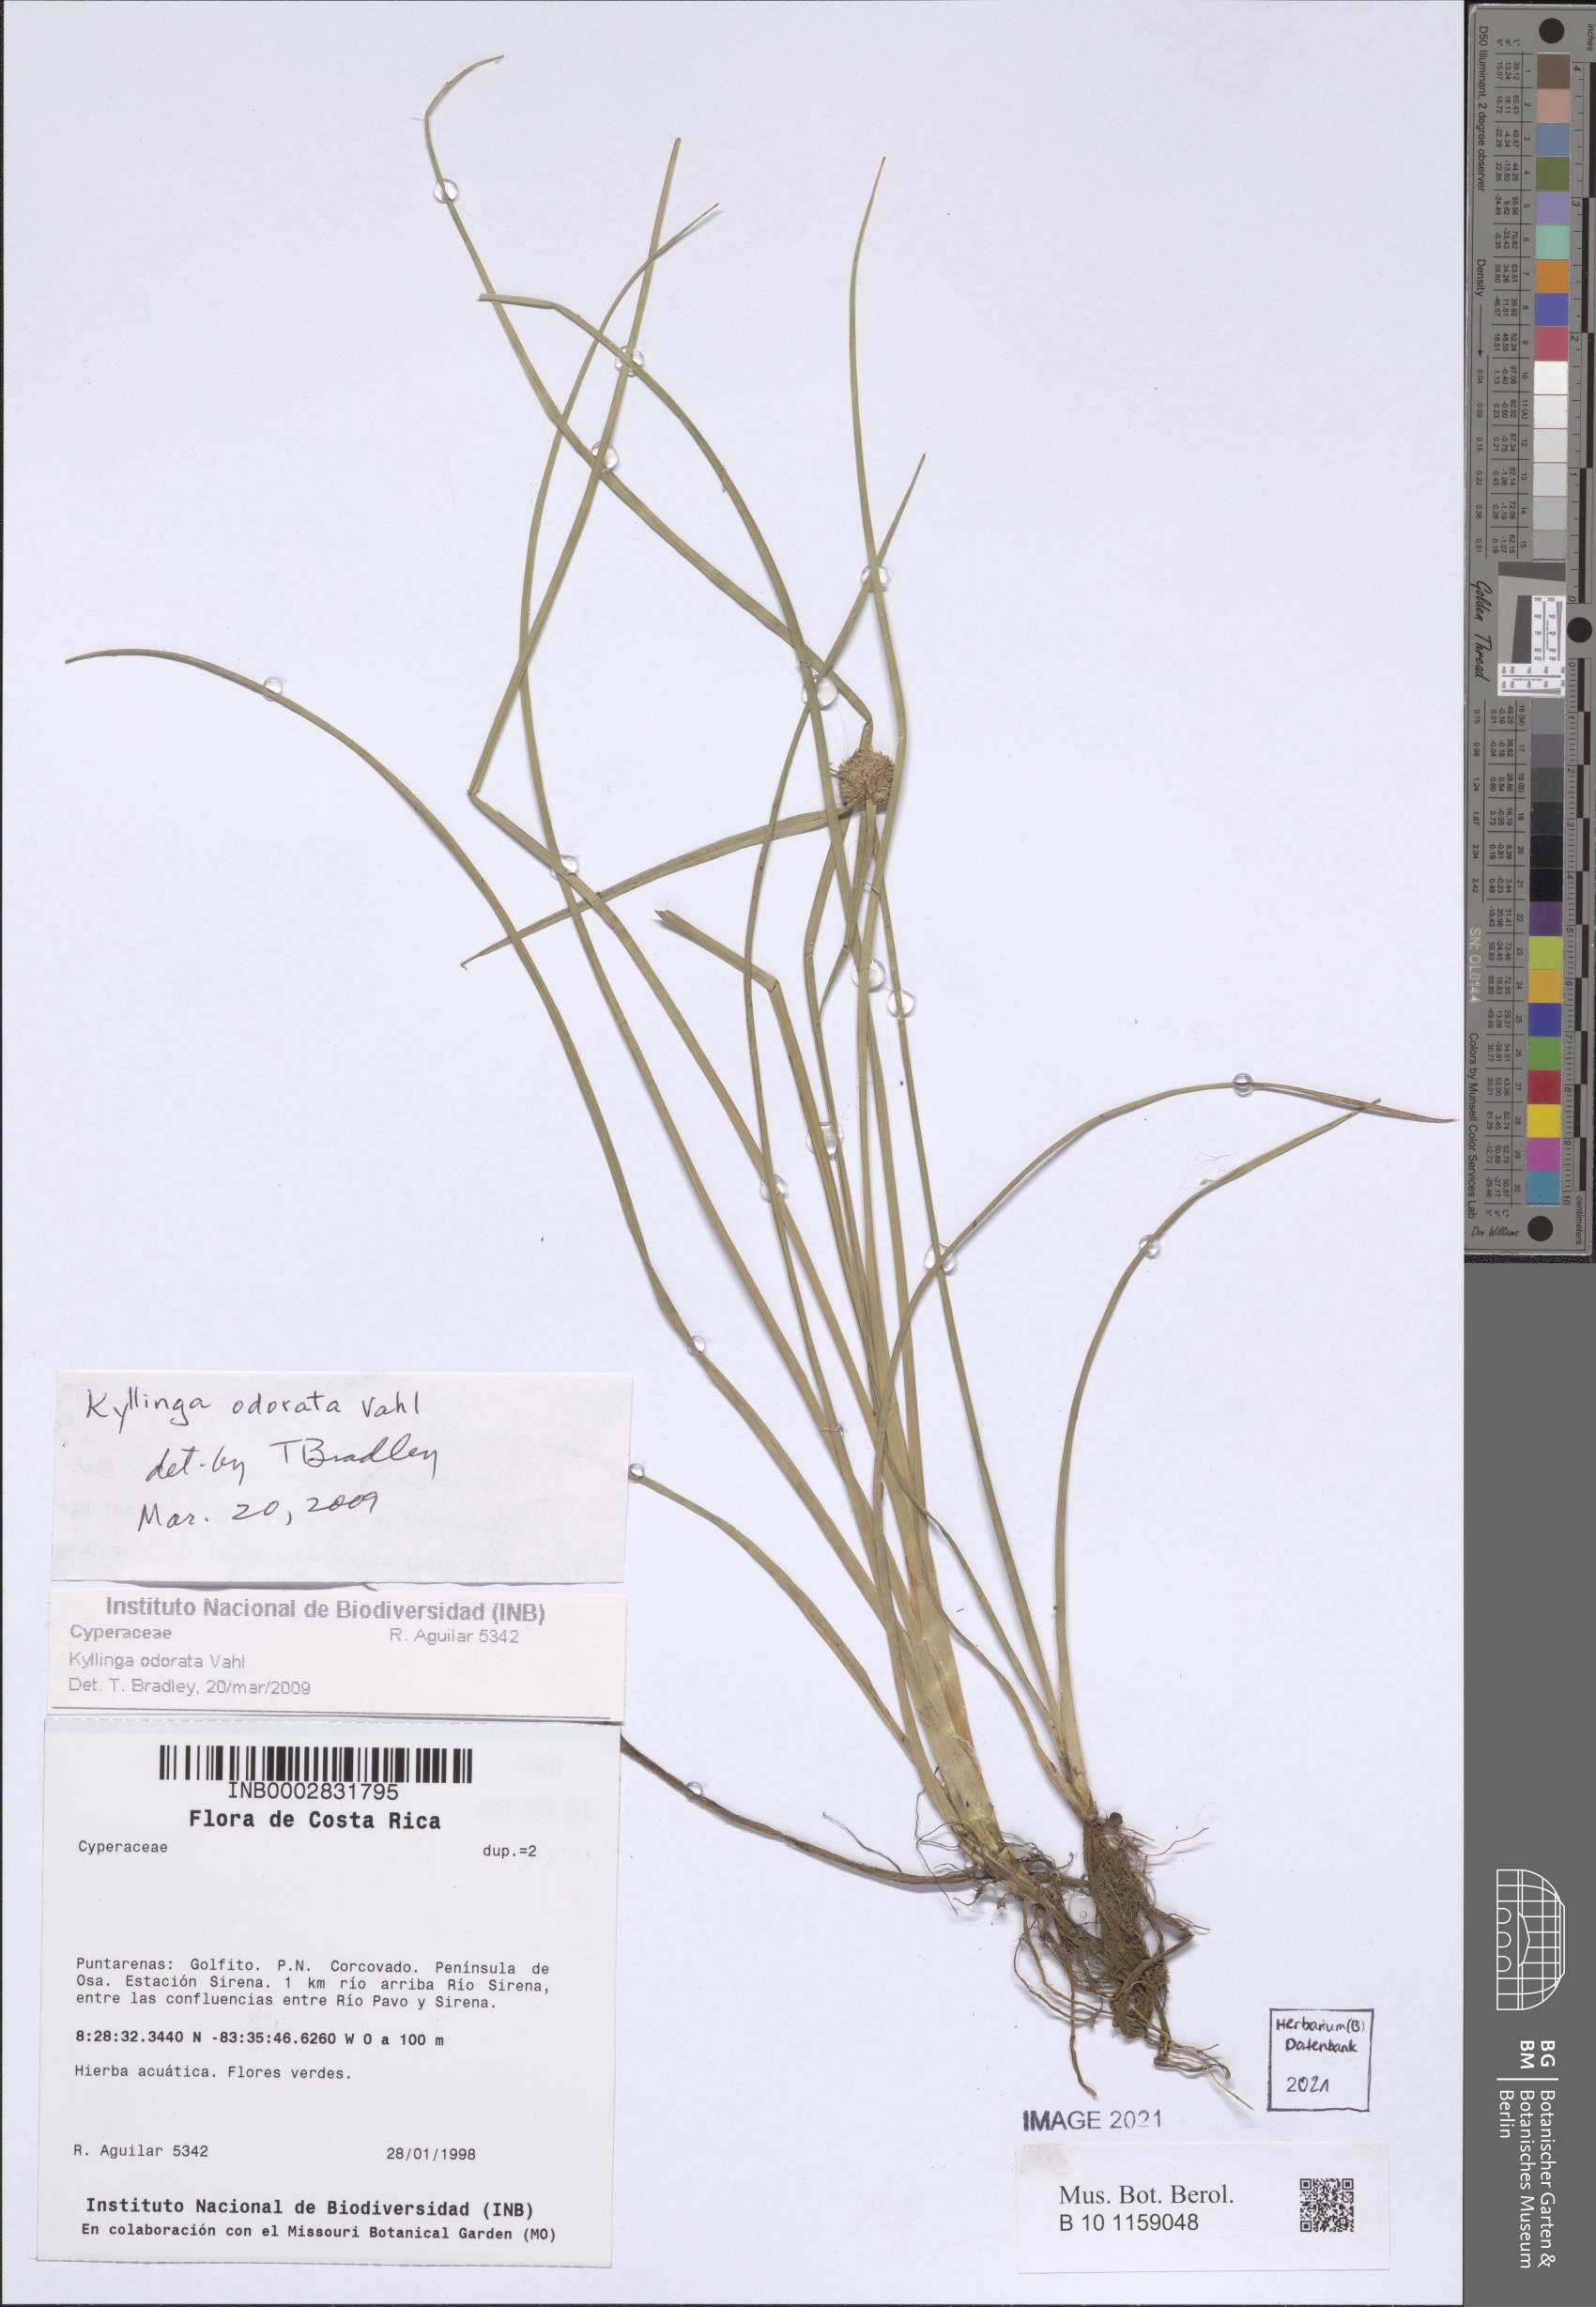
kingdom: Plantae
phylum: Tracheophyta
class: Liliopsida
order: Poales
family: Cyperaceae
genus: Cyperus
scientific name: Cyperus sesquiflorus
